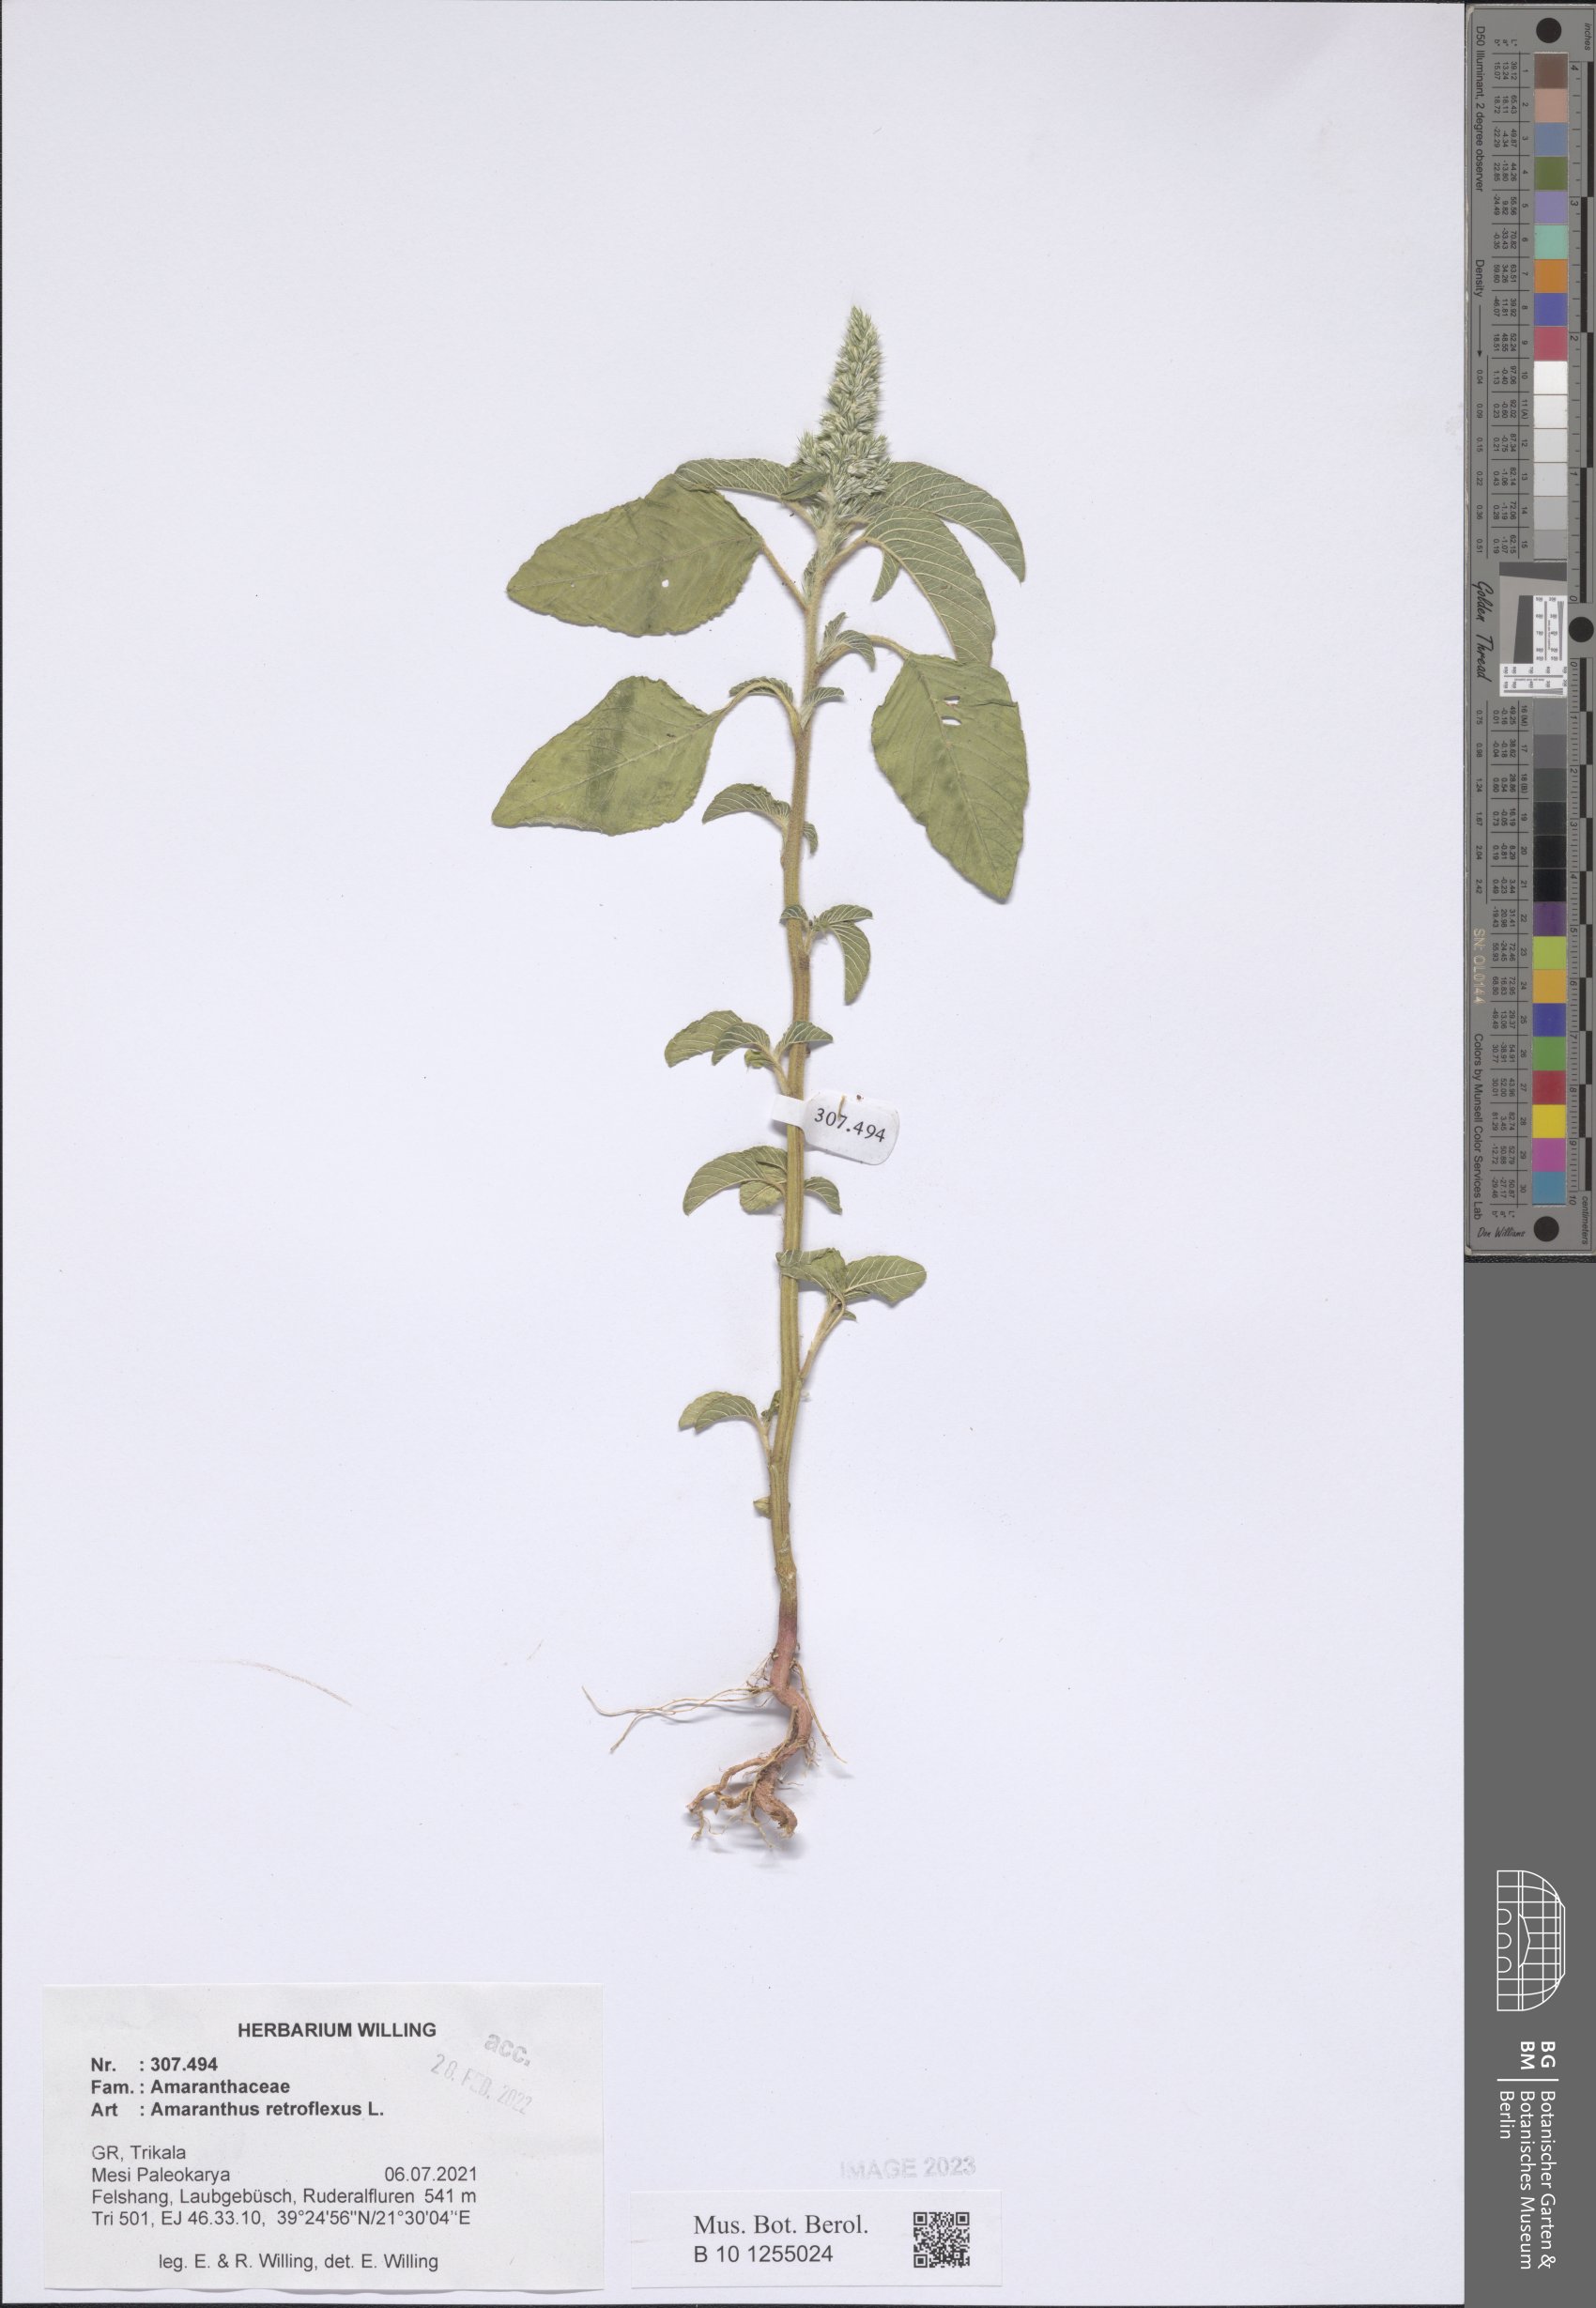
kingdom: Plantae
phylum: Tracheophyta
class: Magnoliopsida
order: Caryophyllales
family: Amaranthaceae
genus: Amaranthus
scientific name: Amaranthus retroflexus
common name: Redroot amaranth
